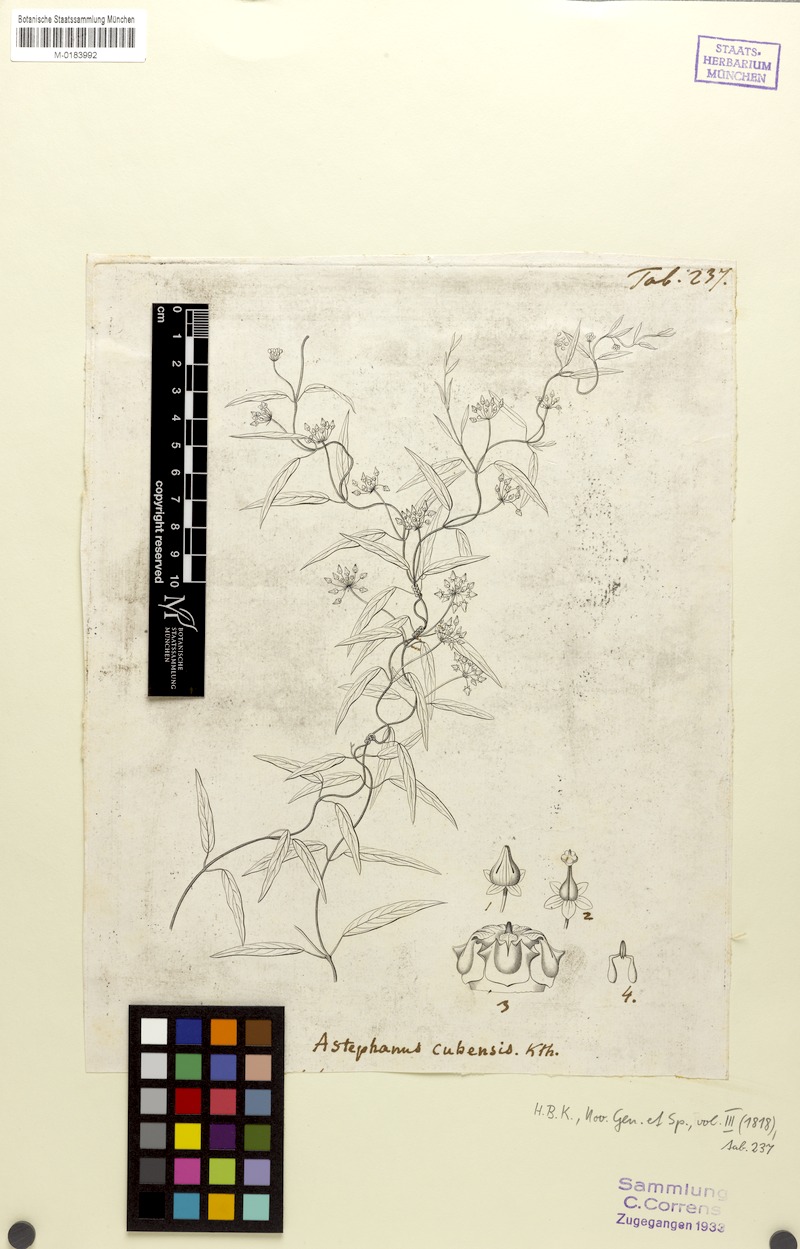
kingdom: Plantae
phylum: Tracheophyta
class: Magnoliopsida
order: Gentianales
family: Apocynaceae
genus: Metastelma
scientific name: Metastelma pubipetalum
